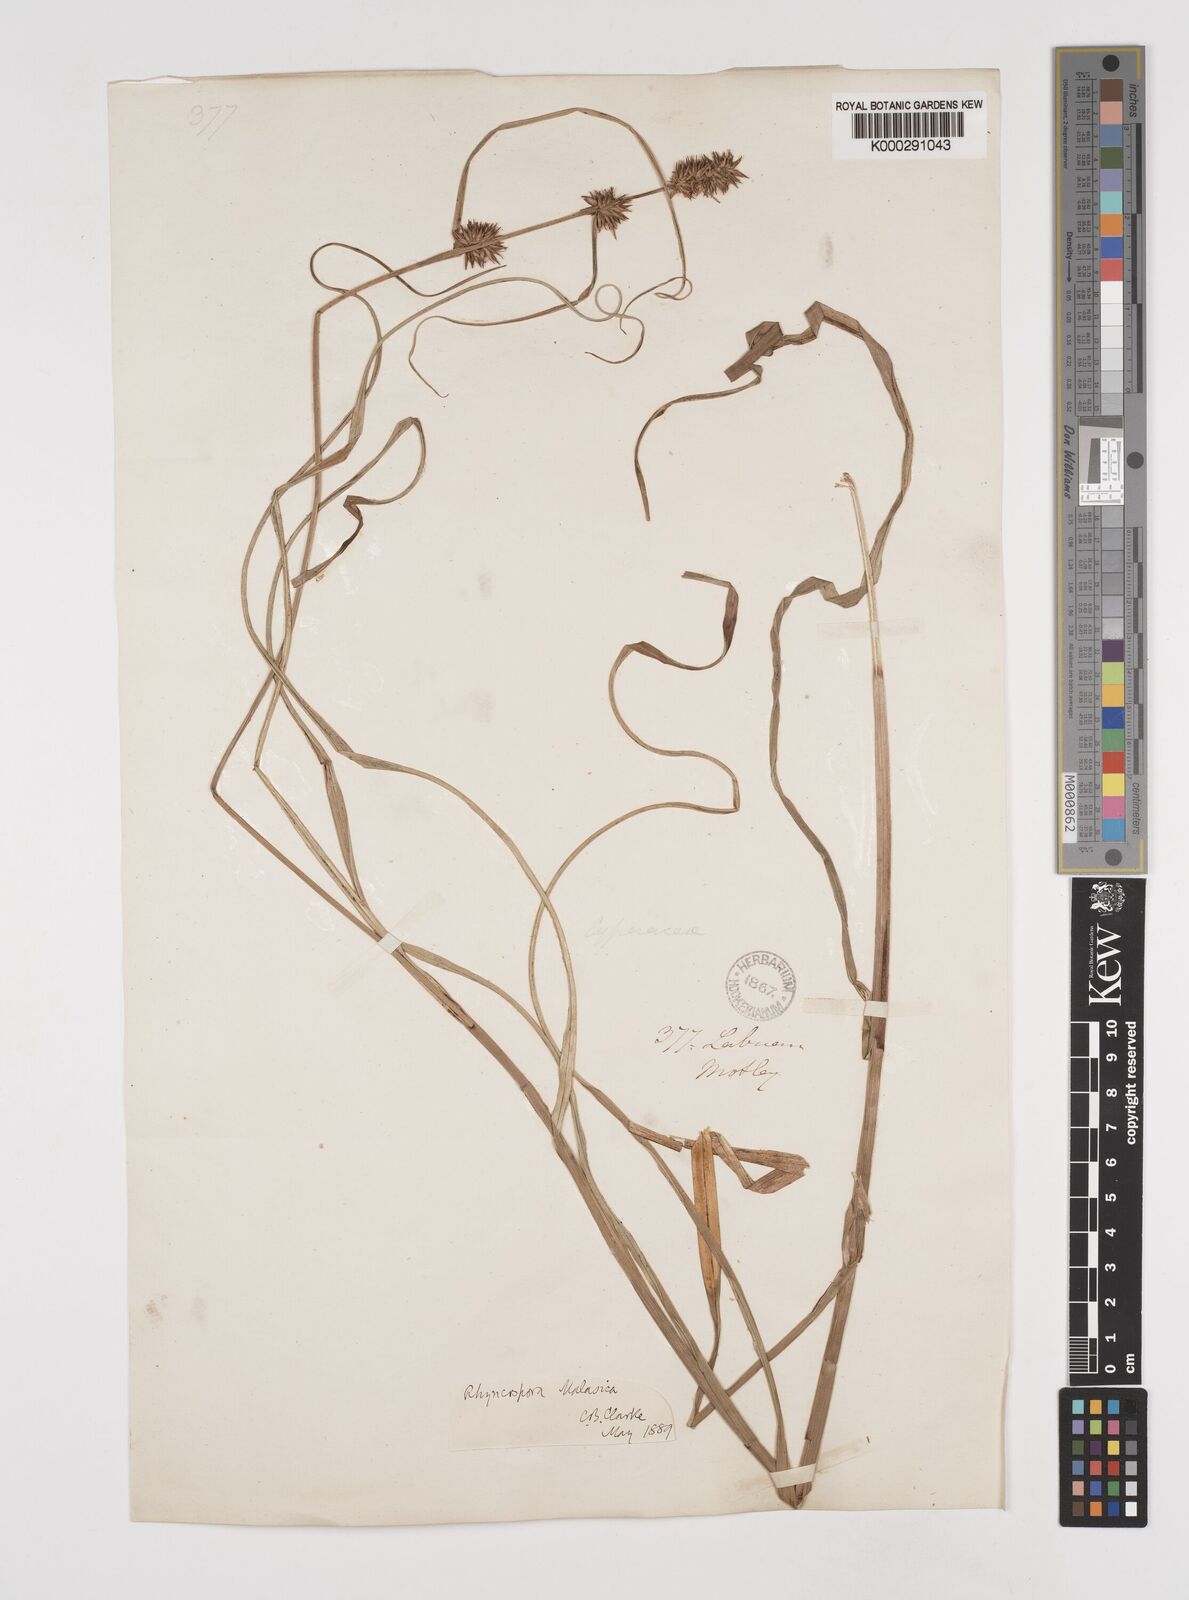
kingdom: Plantae
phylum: Tracheophyta
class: Liliopsida
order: Poales
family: Cyperaceae
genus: Rhynchospora
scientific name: Rhynchospora malasica
